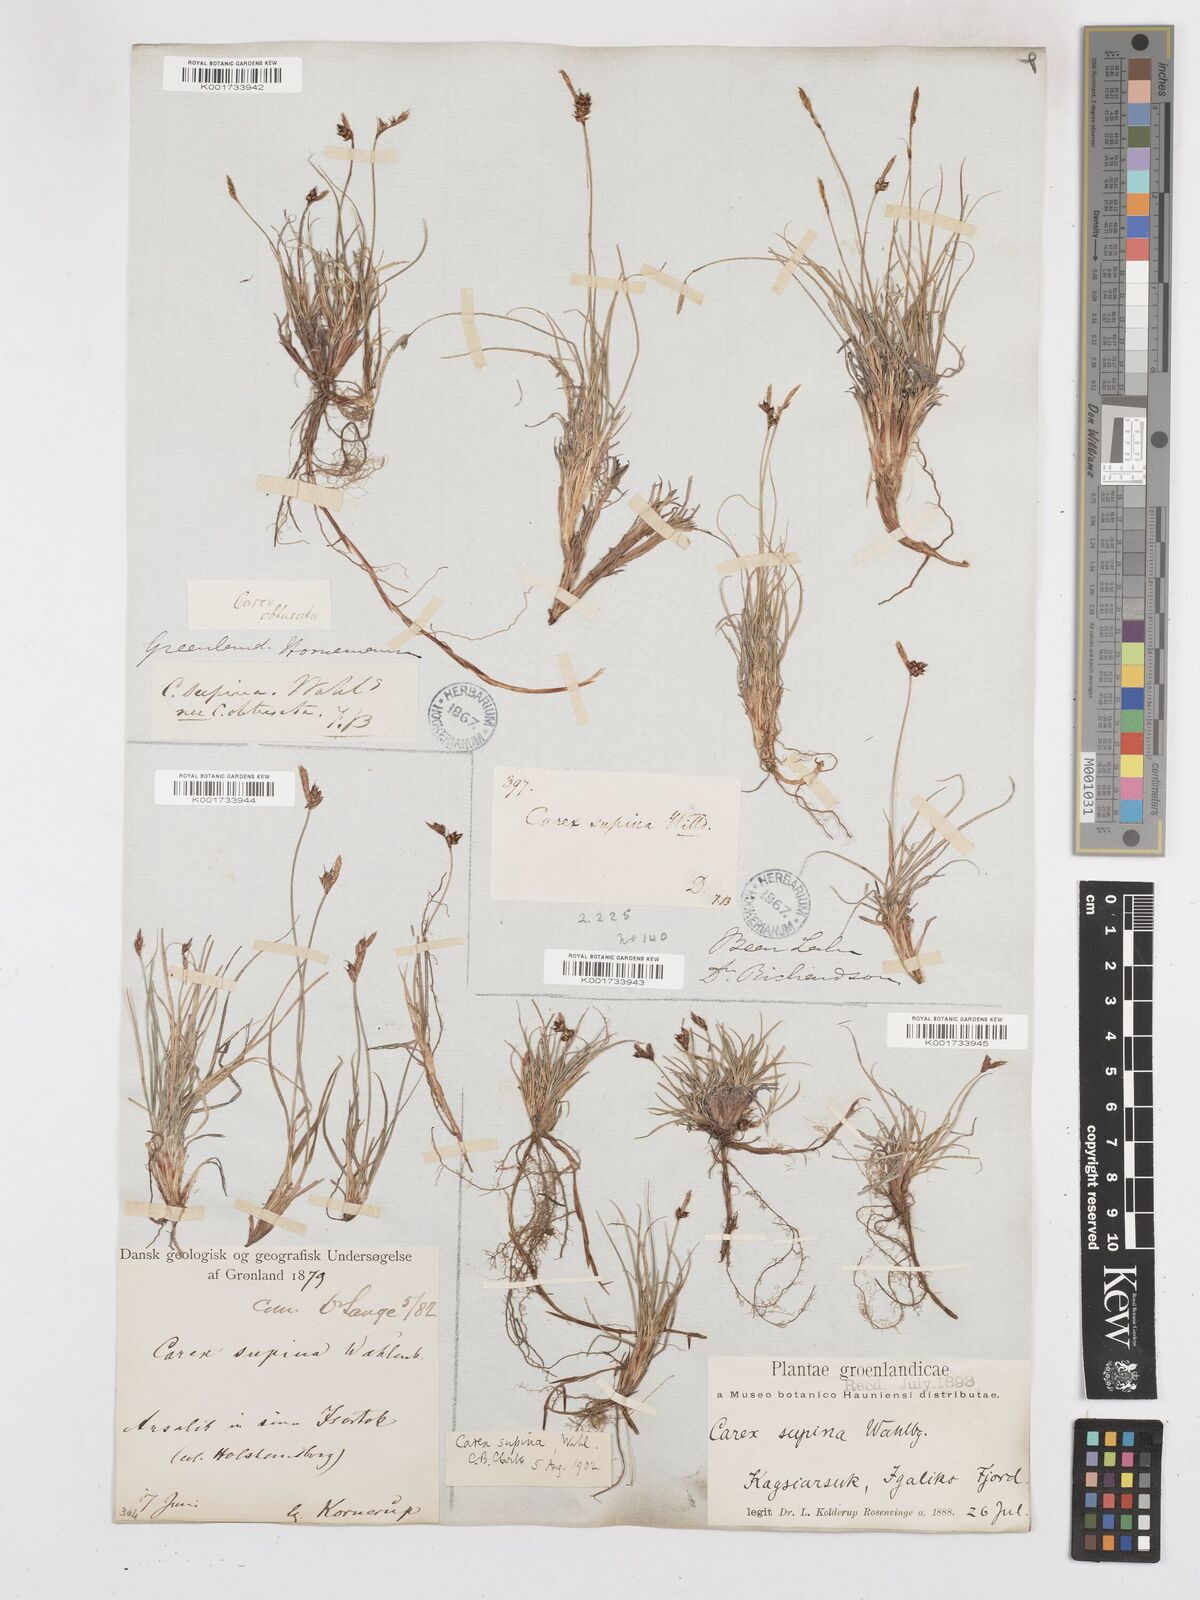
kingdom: Plantae
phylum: Tracheophyta
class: Liliopsida
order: Poales
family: Cyperaceae
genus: Carex
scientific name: Carex supina
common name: Lying-back sedge
